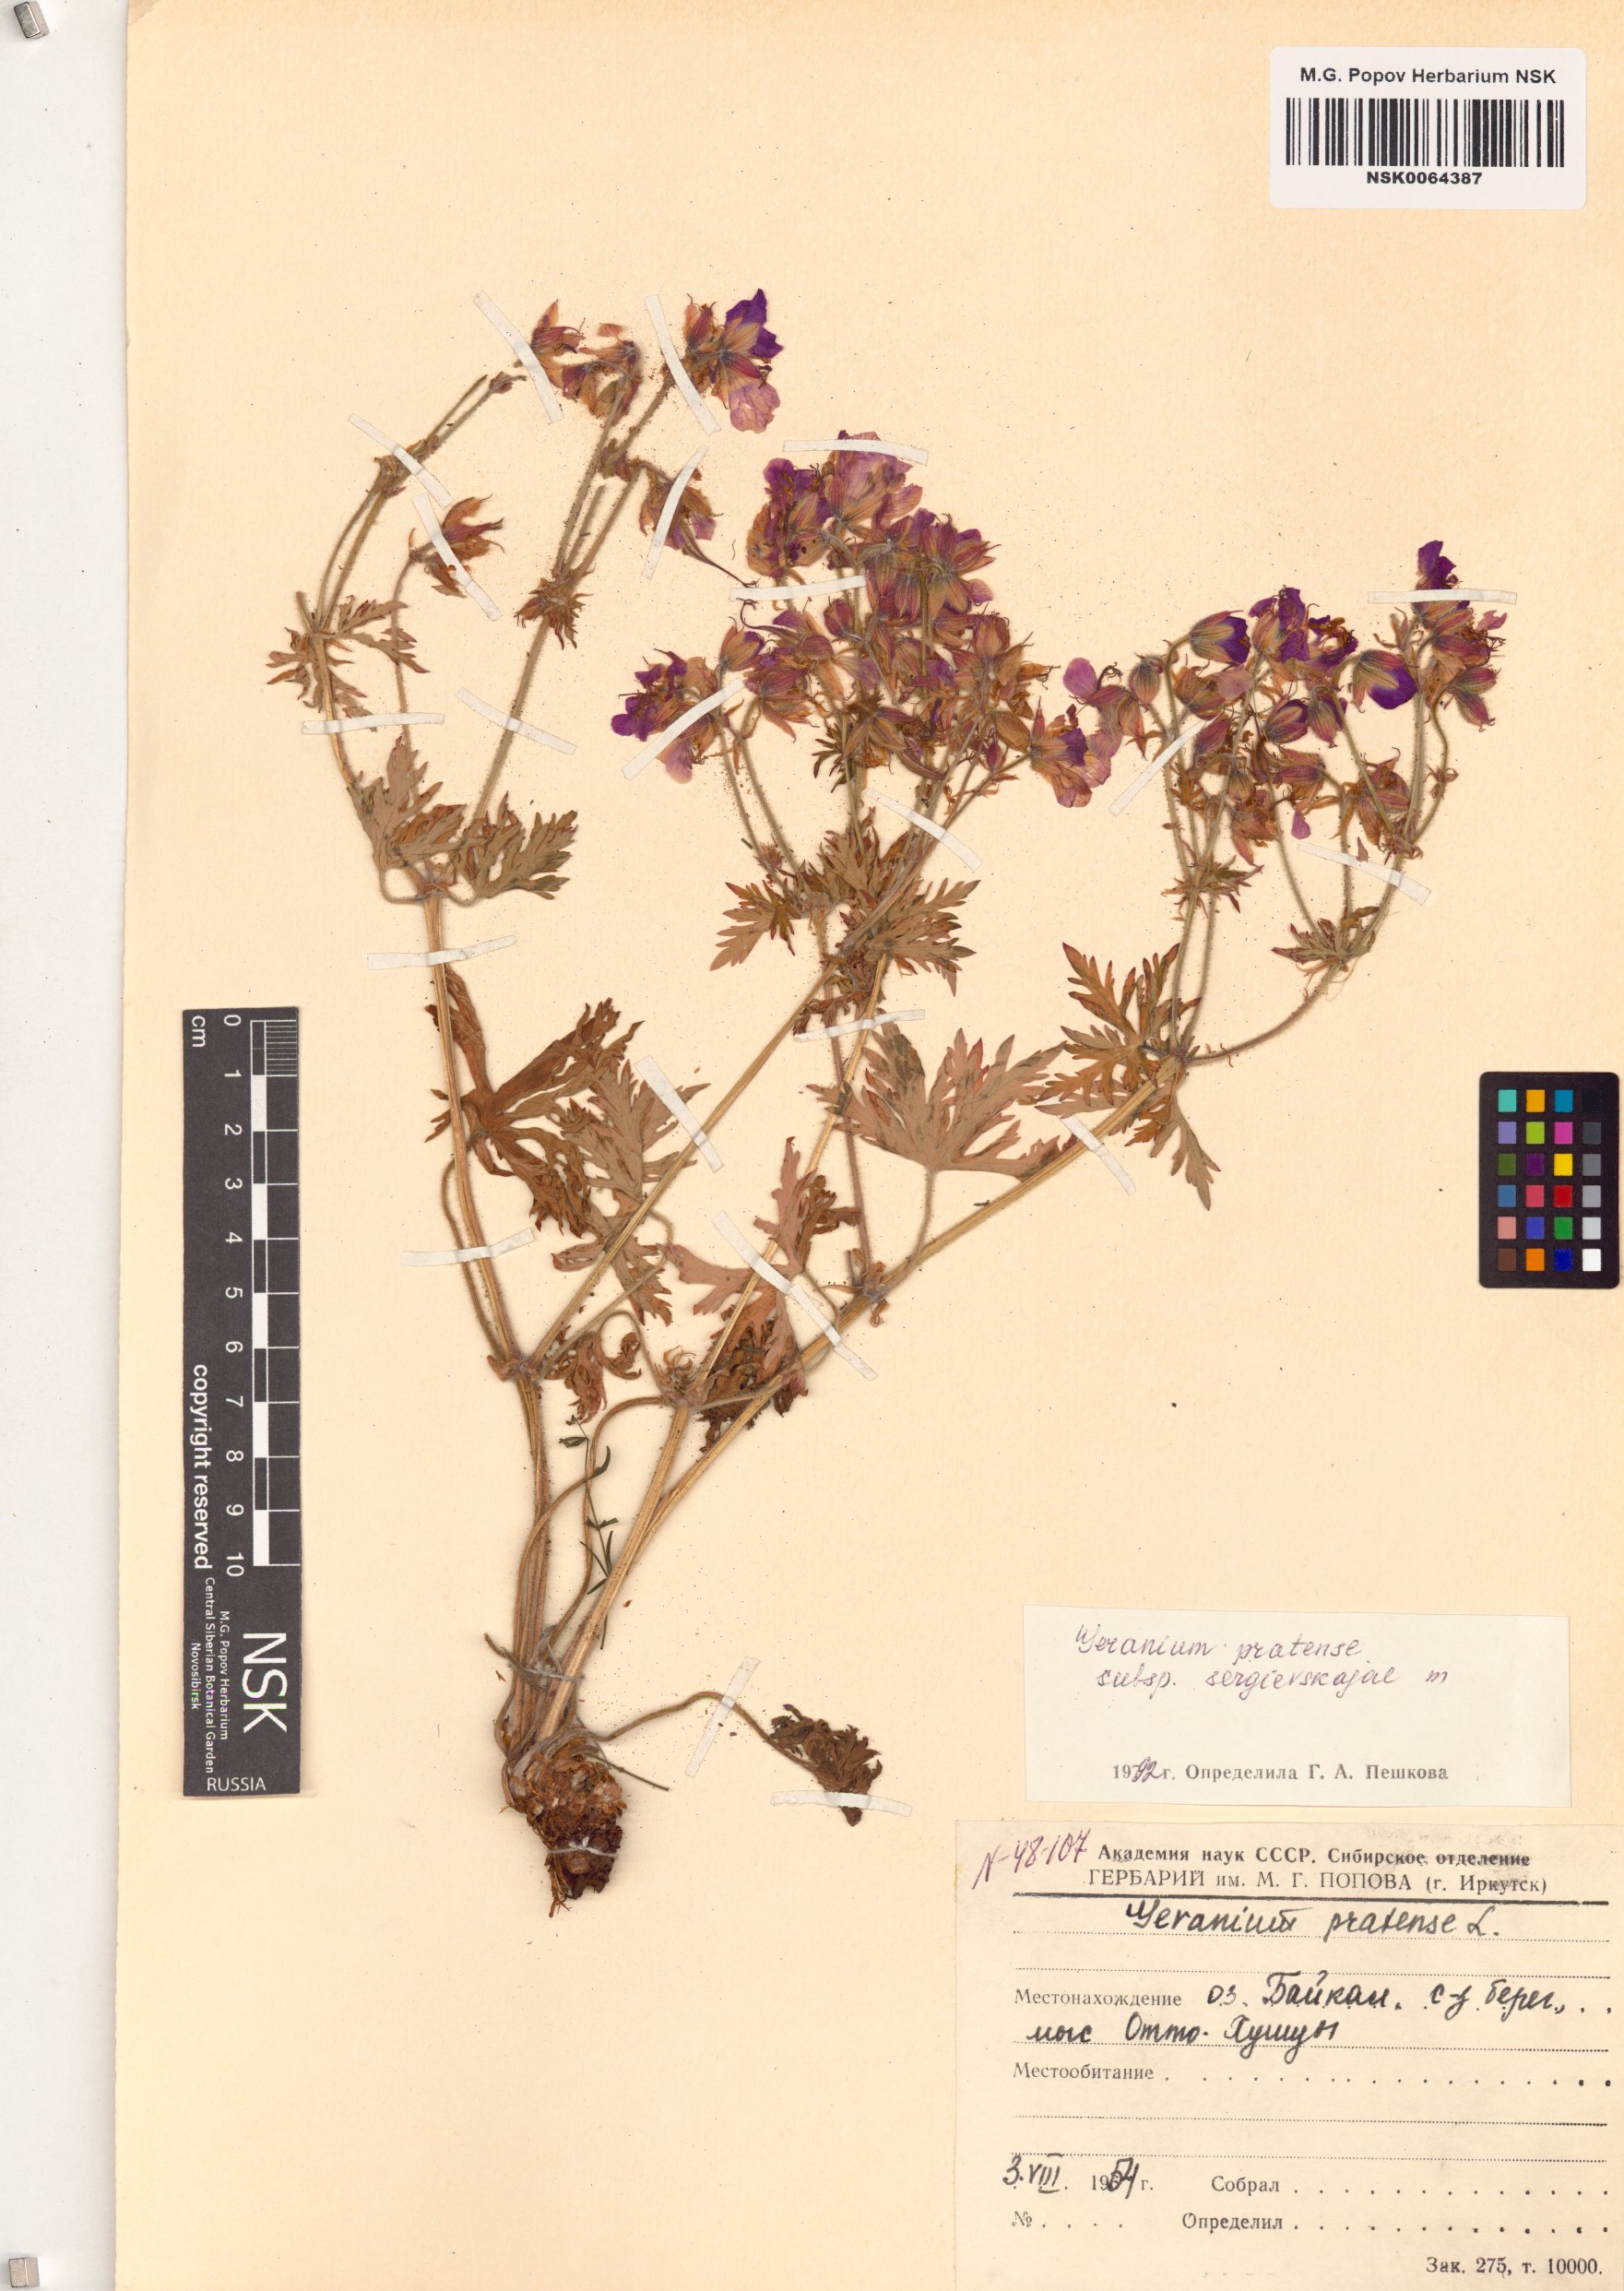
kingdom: Plantae
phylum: Tracheophyta
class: Magnoliopsida
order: Geraniales
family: Geraniaceae
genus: Geranium
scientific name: Geranium pratense
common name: Meadow crane's-bill
